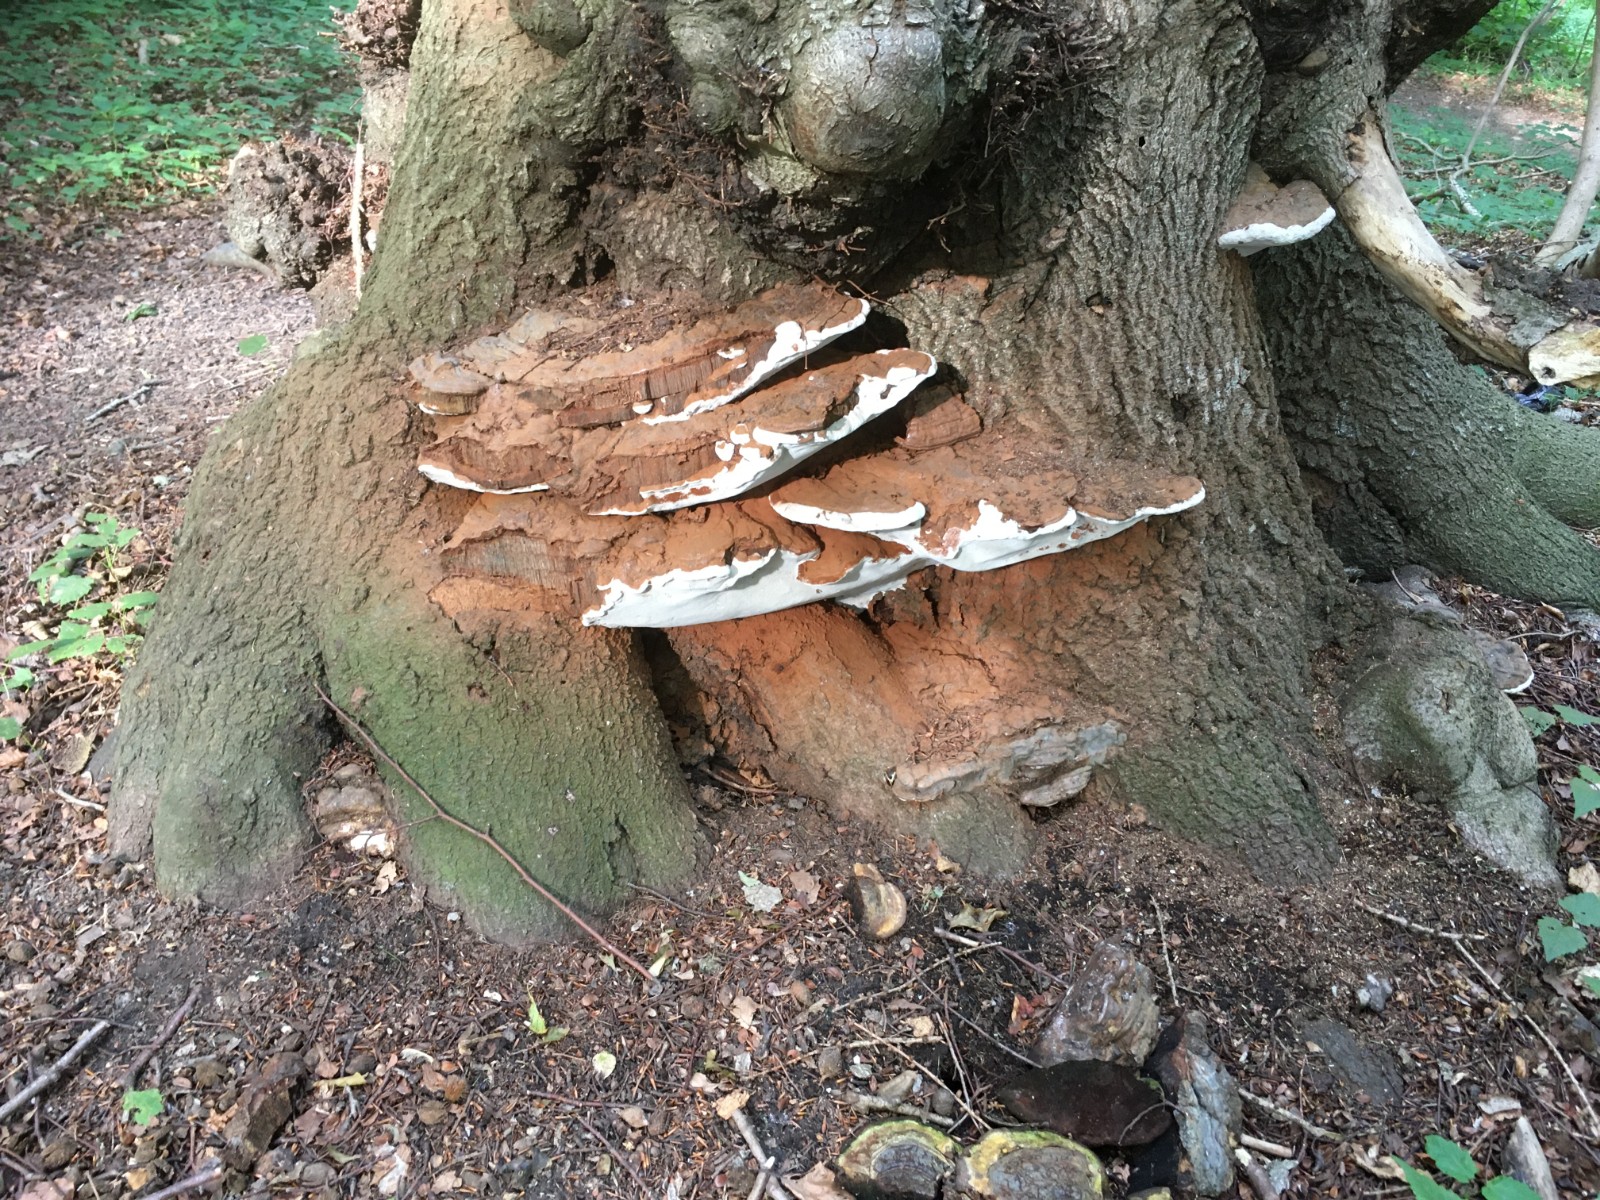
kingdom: Fungi
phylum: Basidiomycota
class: Agaricomycetes
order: Polyporales
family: Polyporaceae
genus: Ganoderma
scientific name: Ganoderma pfeifferi
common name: kobberrød lakporesvamp
